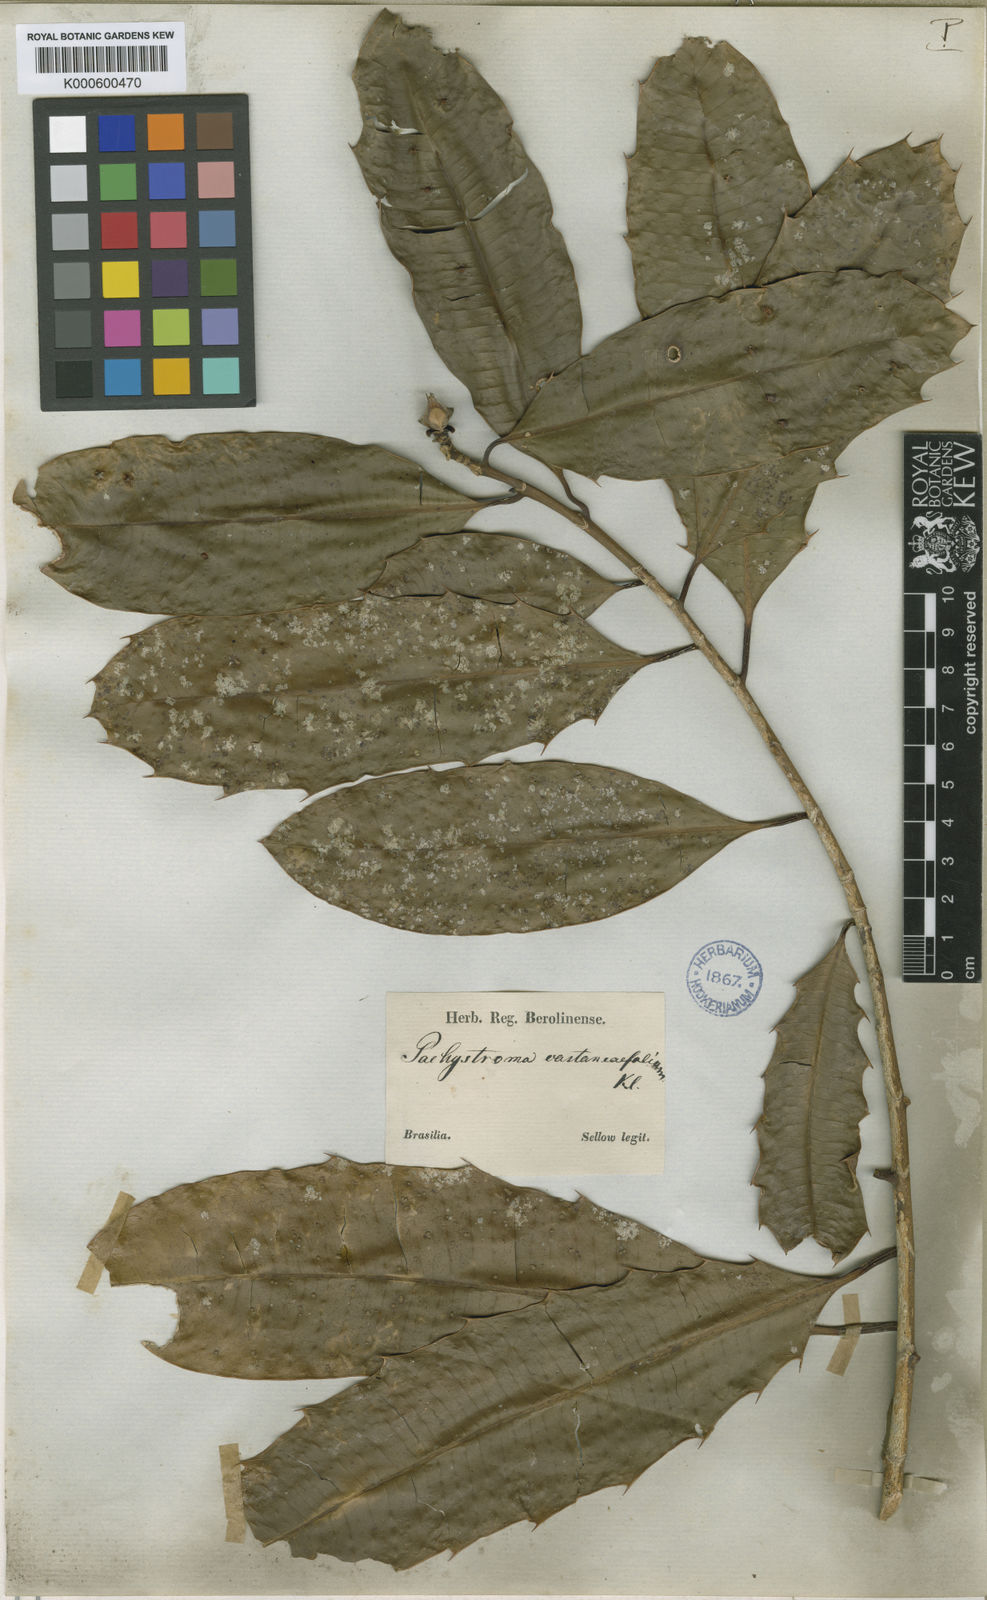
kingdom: Plantae
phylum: Tracheophyta
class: Magnoliopsida
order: Malpighiales
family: Euphorbiaceae
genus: Pachystroma
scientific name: Pachystroma longifolium
